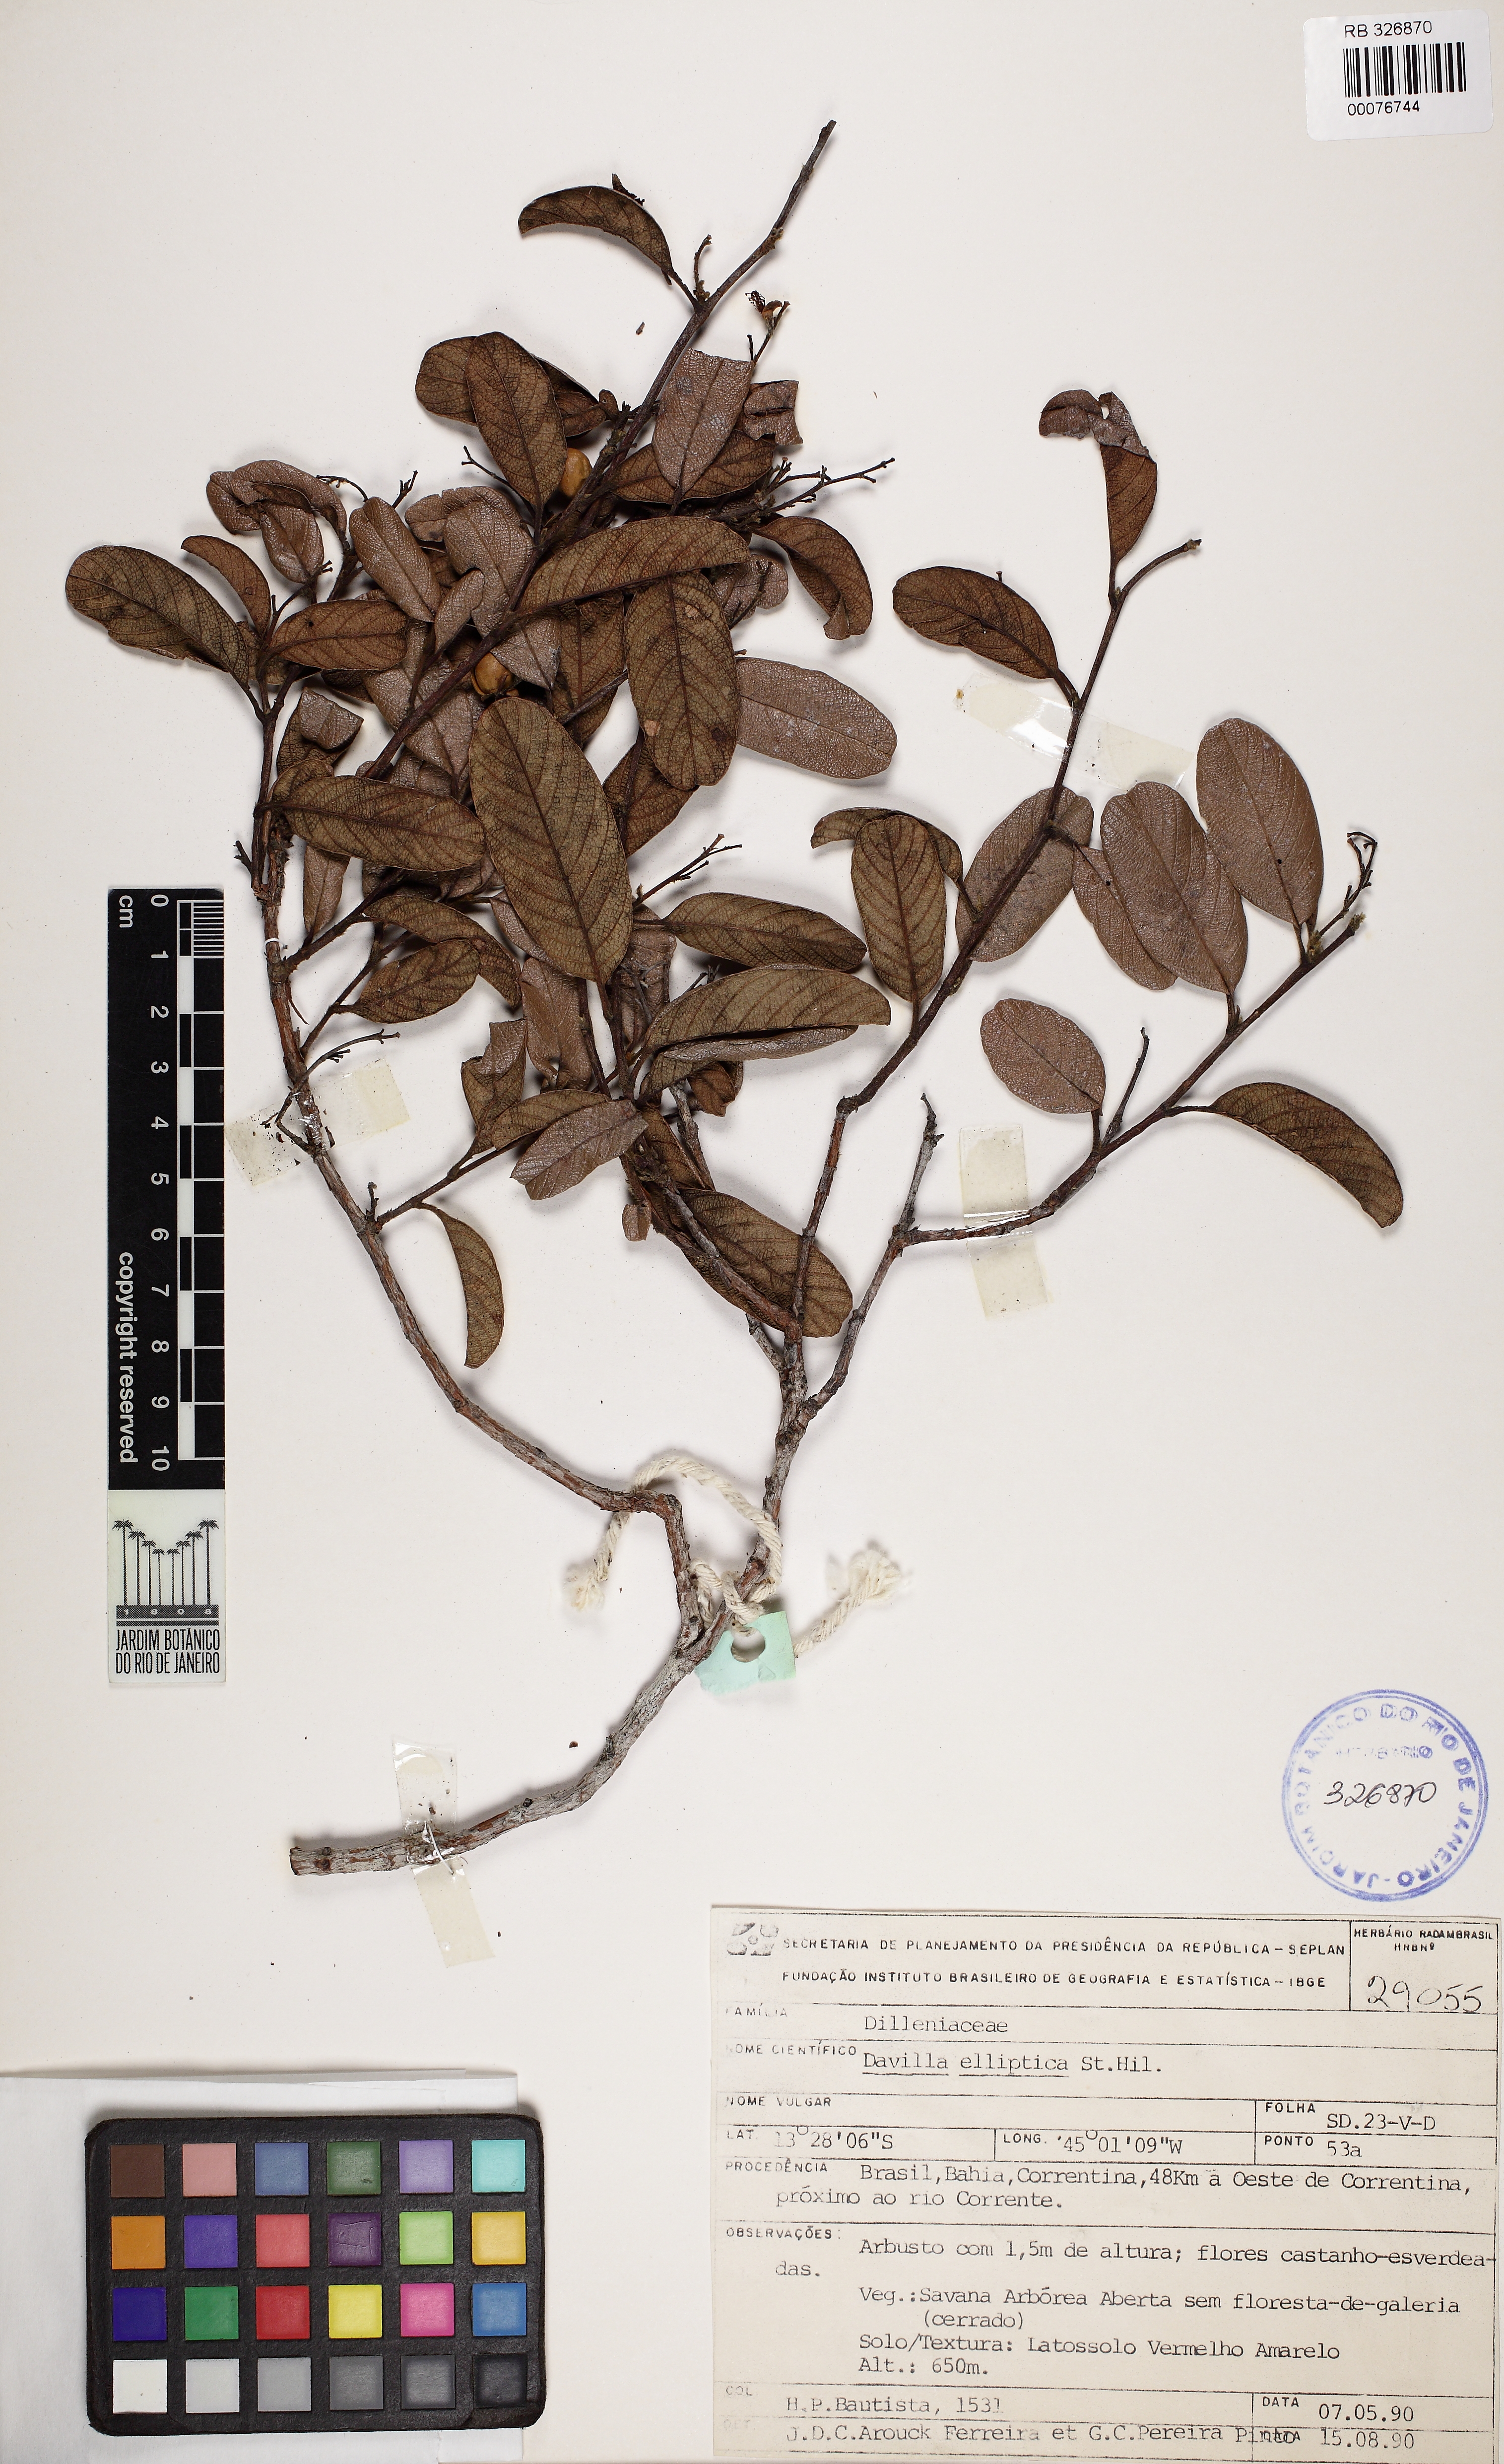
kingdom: Plantae
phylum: Tracheophyta
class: Magnoliopsida
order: Dilleniales
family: Dilleniaceae
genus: Davilla
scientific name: Davilla elliptica
